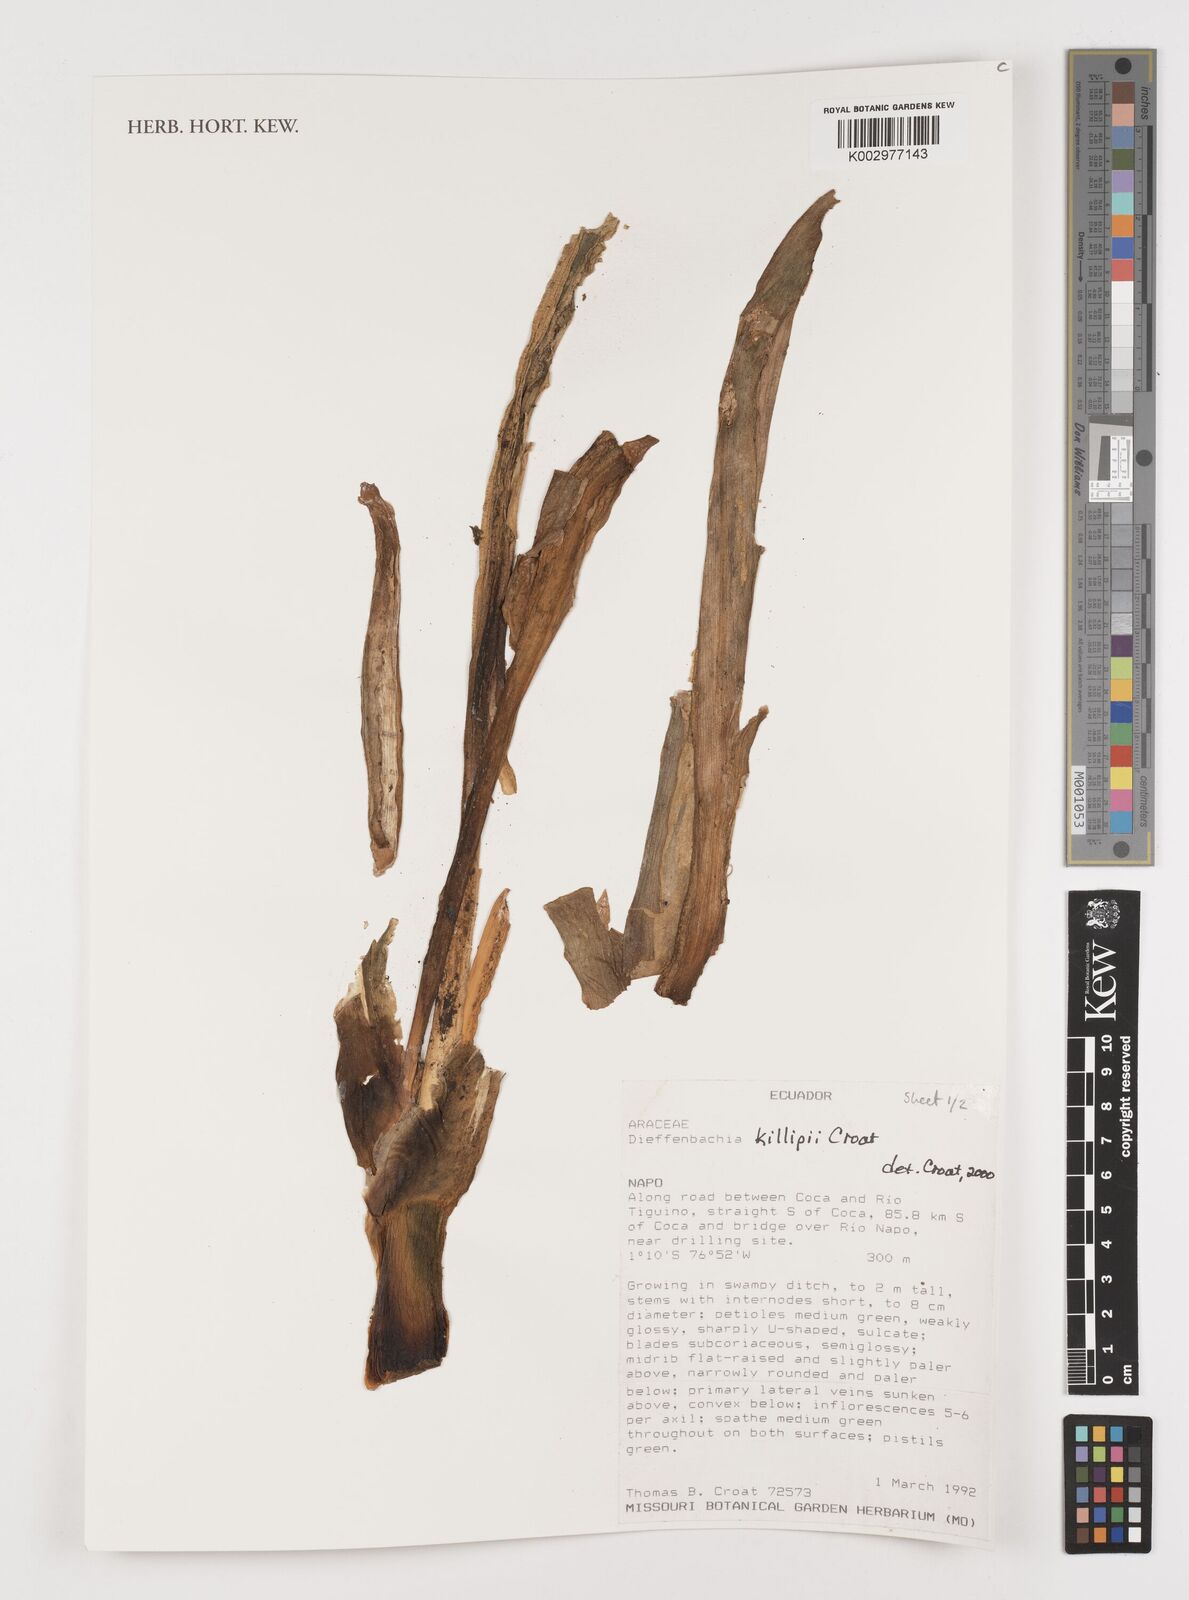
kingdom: Plantae
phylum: Tracheophyta
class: Liliopsida
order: Alismatales
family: Araceae
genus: Dieffenbachia
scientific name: Dieffenbachia killipii
